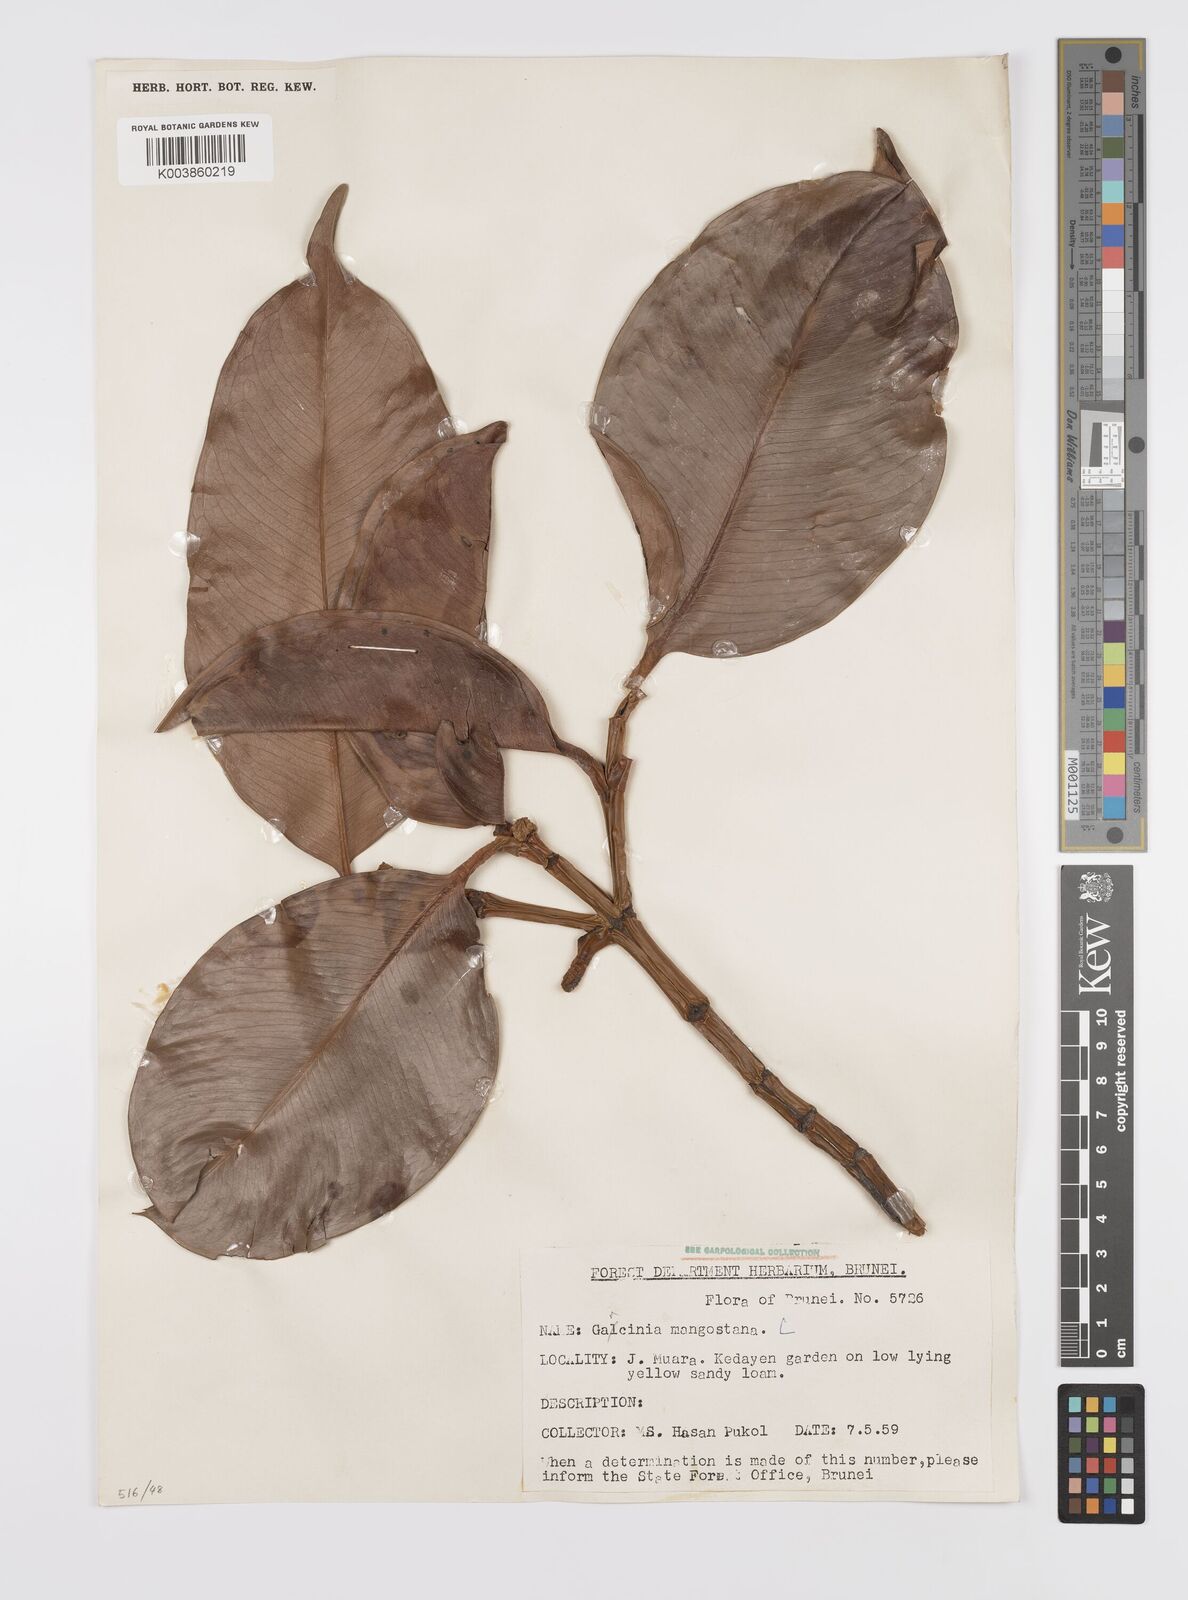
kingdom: Plantae
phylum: Tracheophyta
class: Magnoliopsida
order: Malpighiales
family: Clusiaceae
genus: Garcinia
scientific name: Garcinia mangostana
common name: Mangosteen
